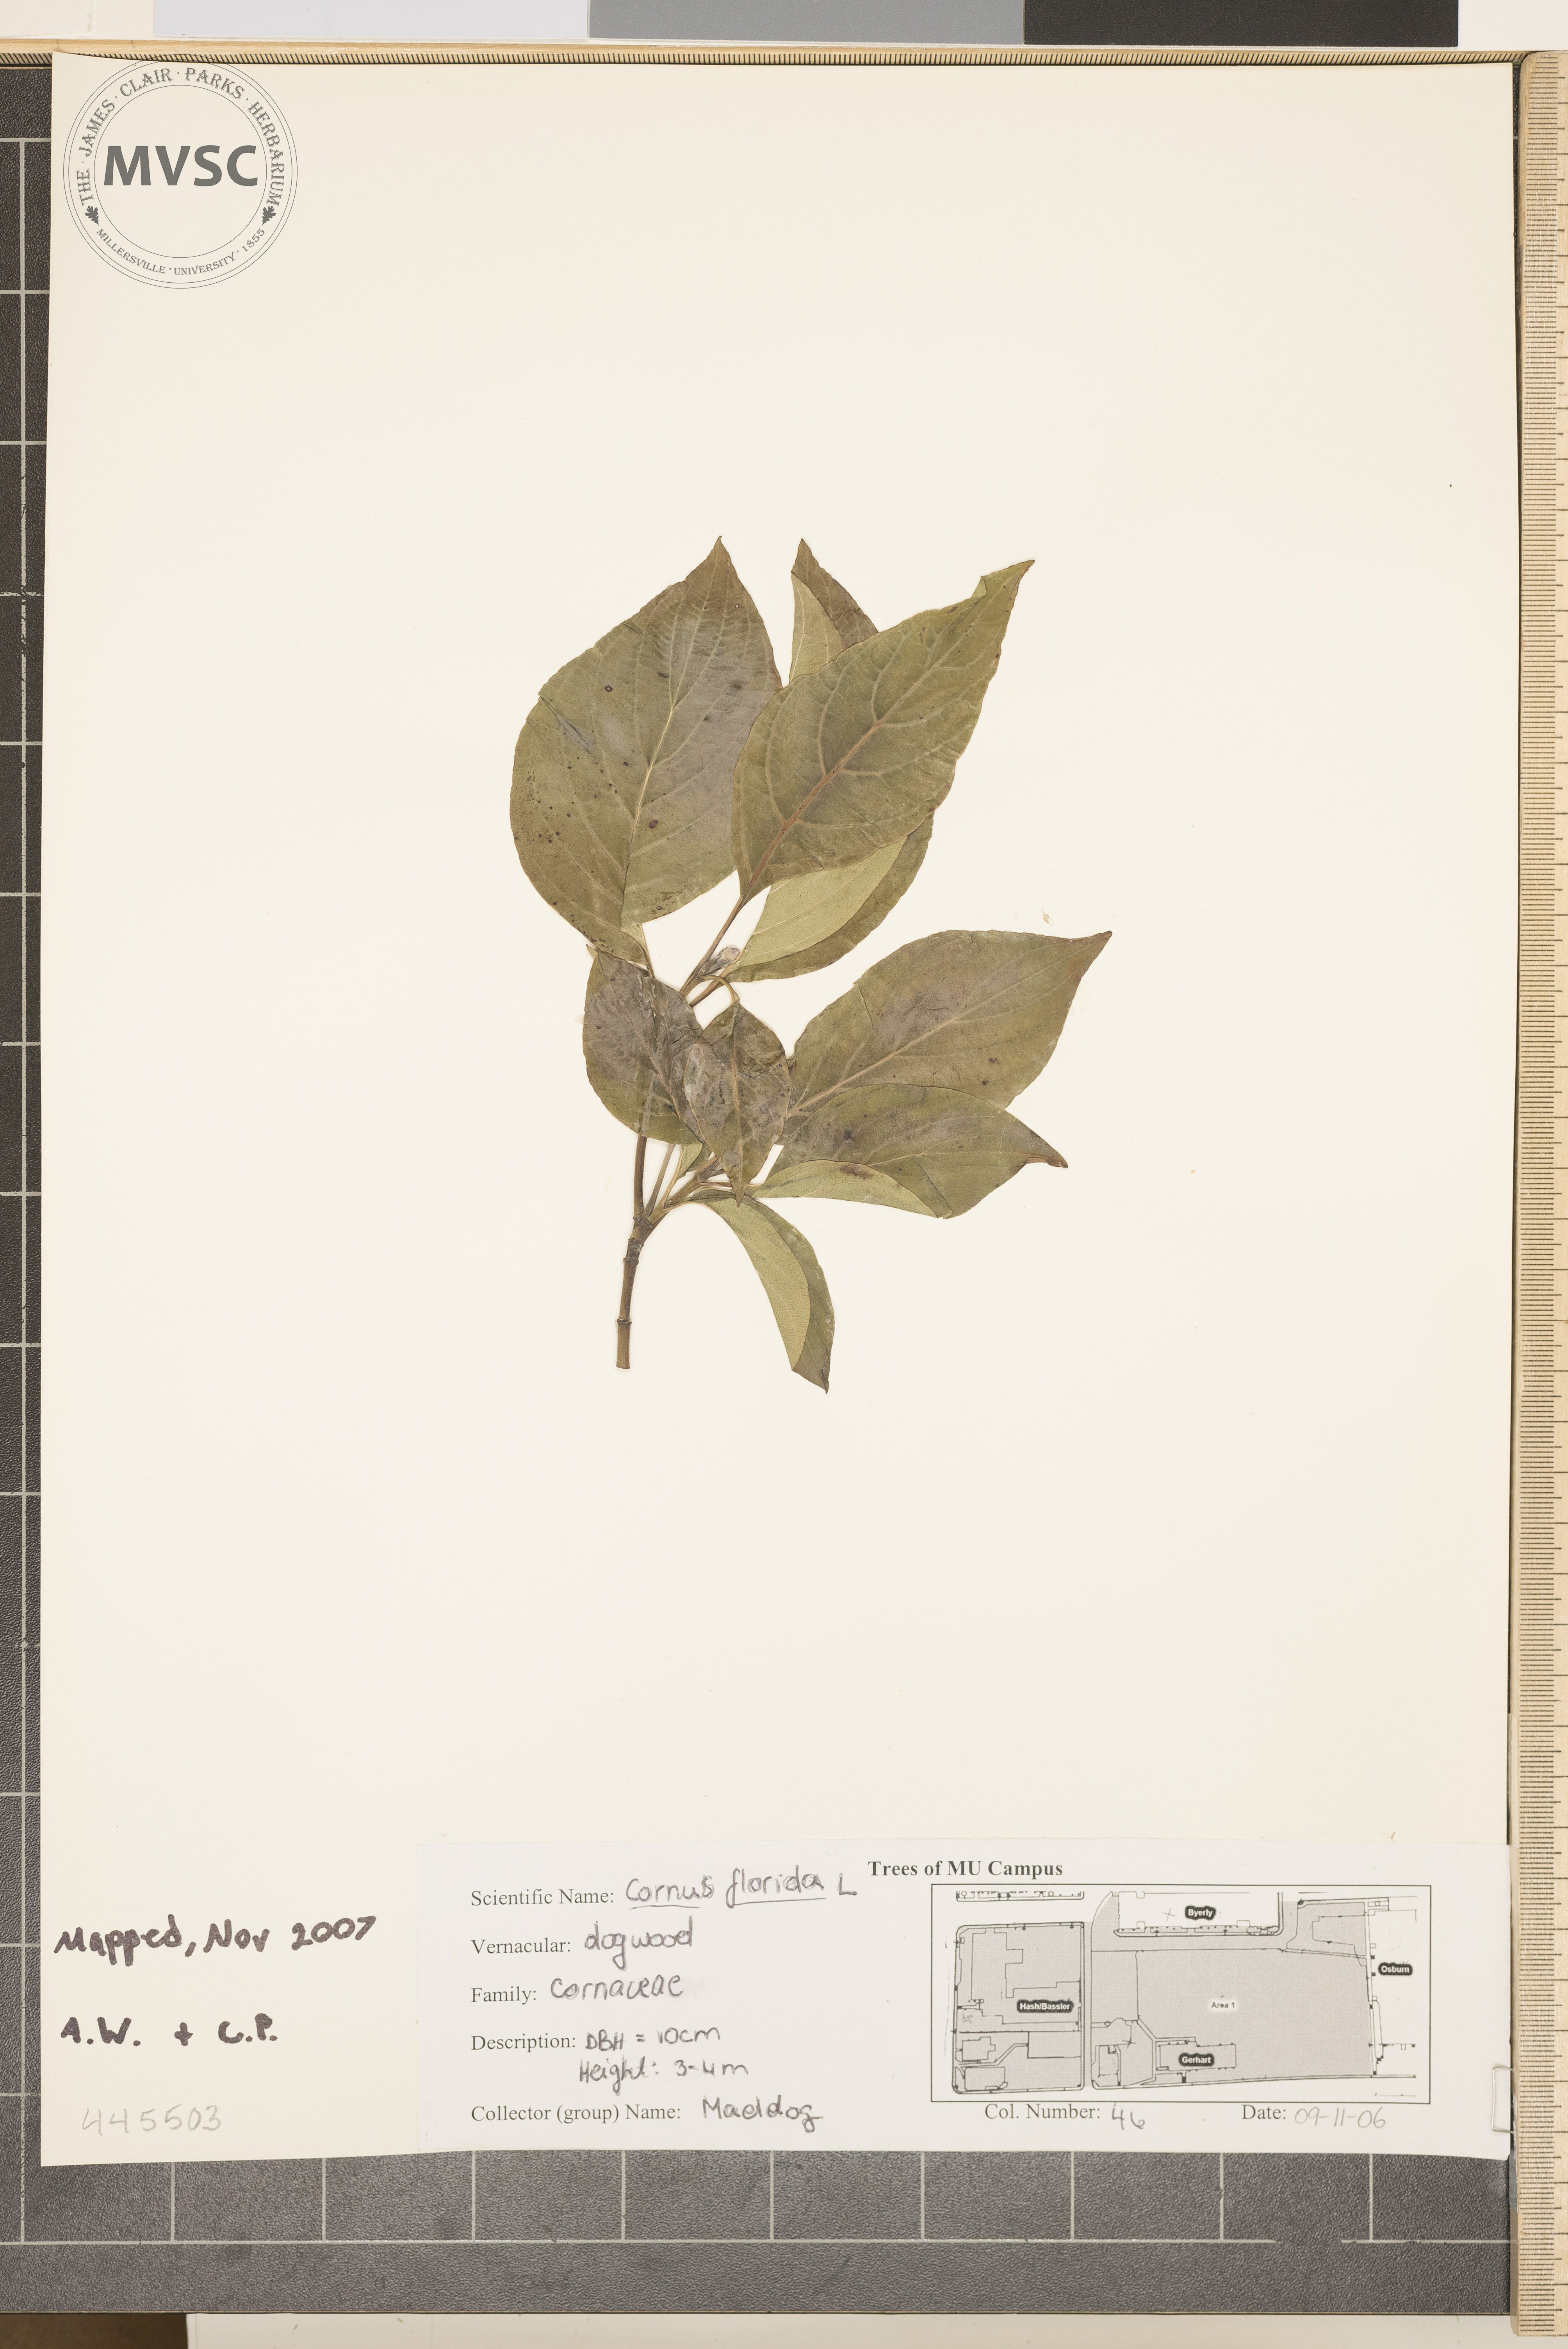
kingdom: Plantae
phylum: Tracheophyta
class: Magnoliopsida
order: Cornales
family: Cornaceae
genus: Cornus
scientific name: Cornus florida
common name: Flowering Dogwood
